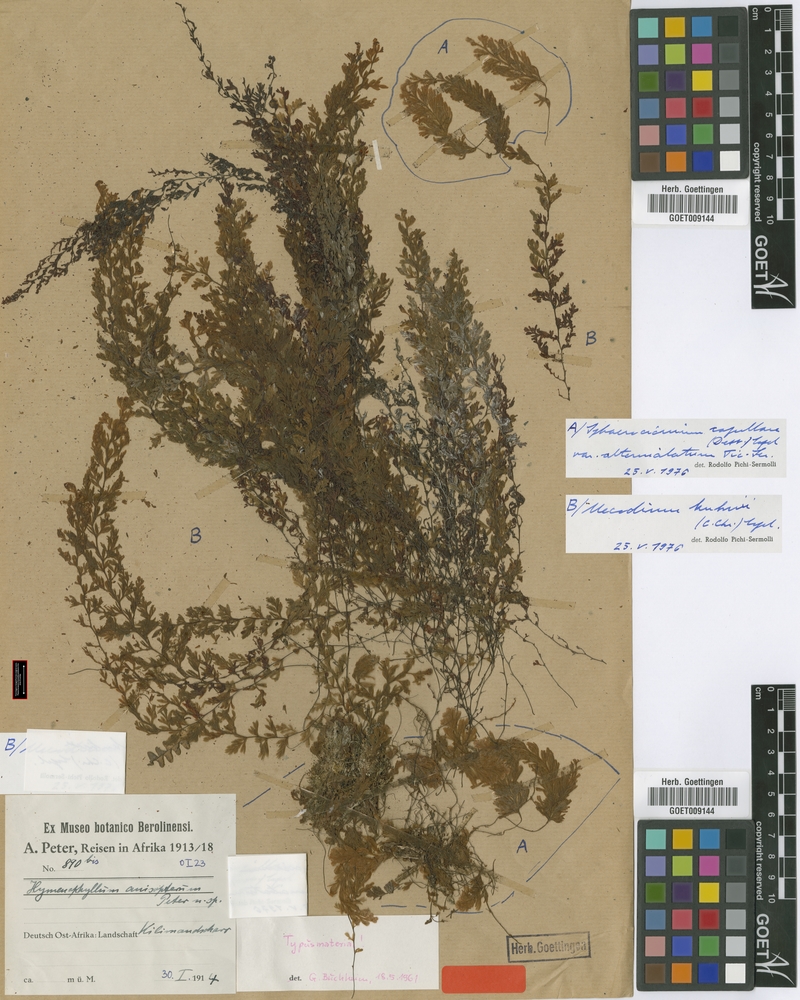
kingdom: Plantae
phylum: Tracheophyta
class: Polypodiopsida
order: Hymenophyllales
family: Hymenophyllaceae
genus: Hymenophyllum
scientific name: Hymenophyllum capillare
